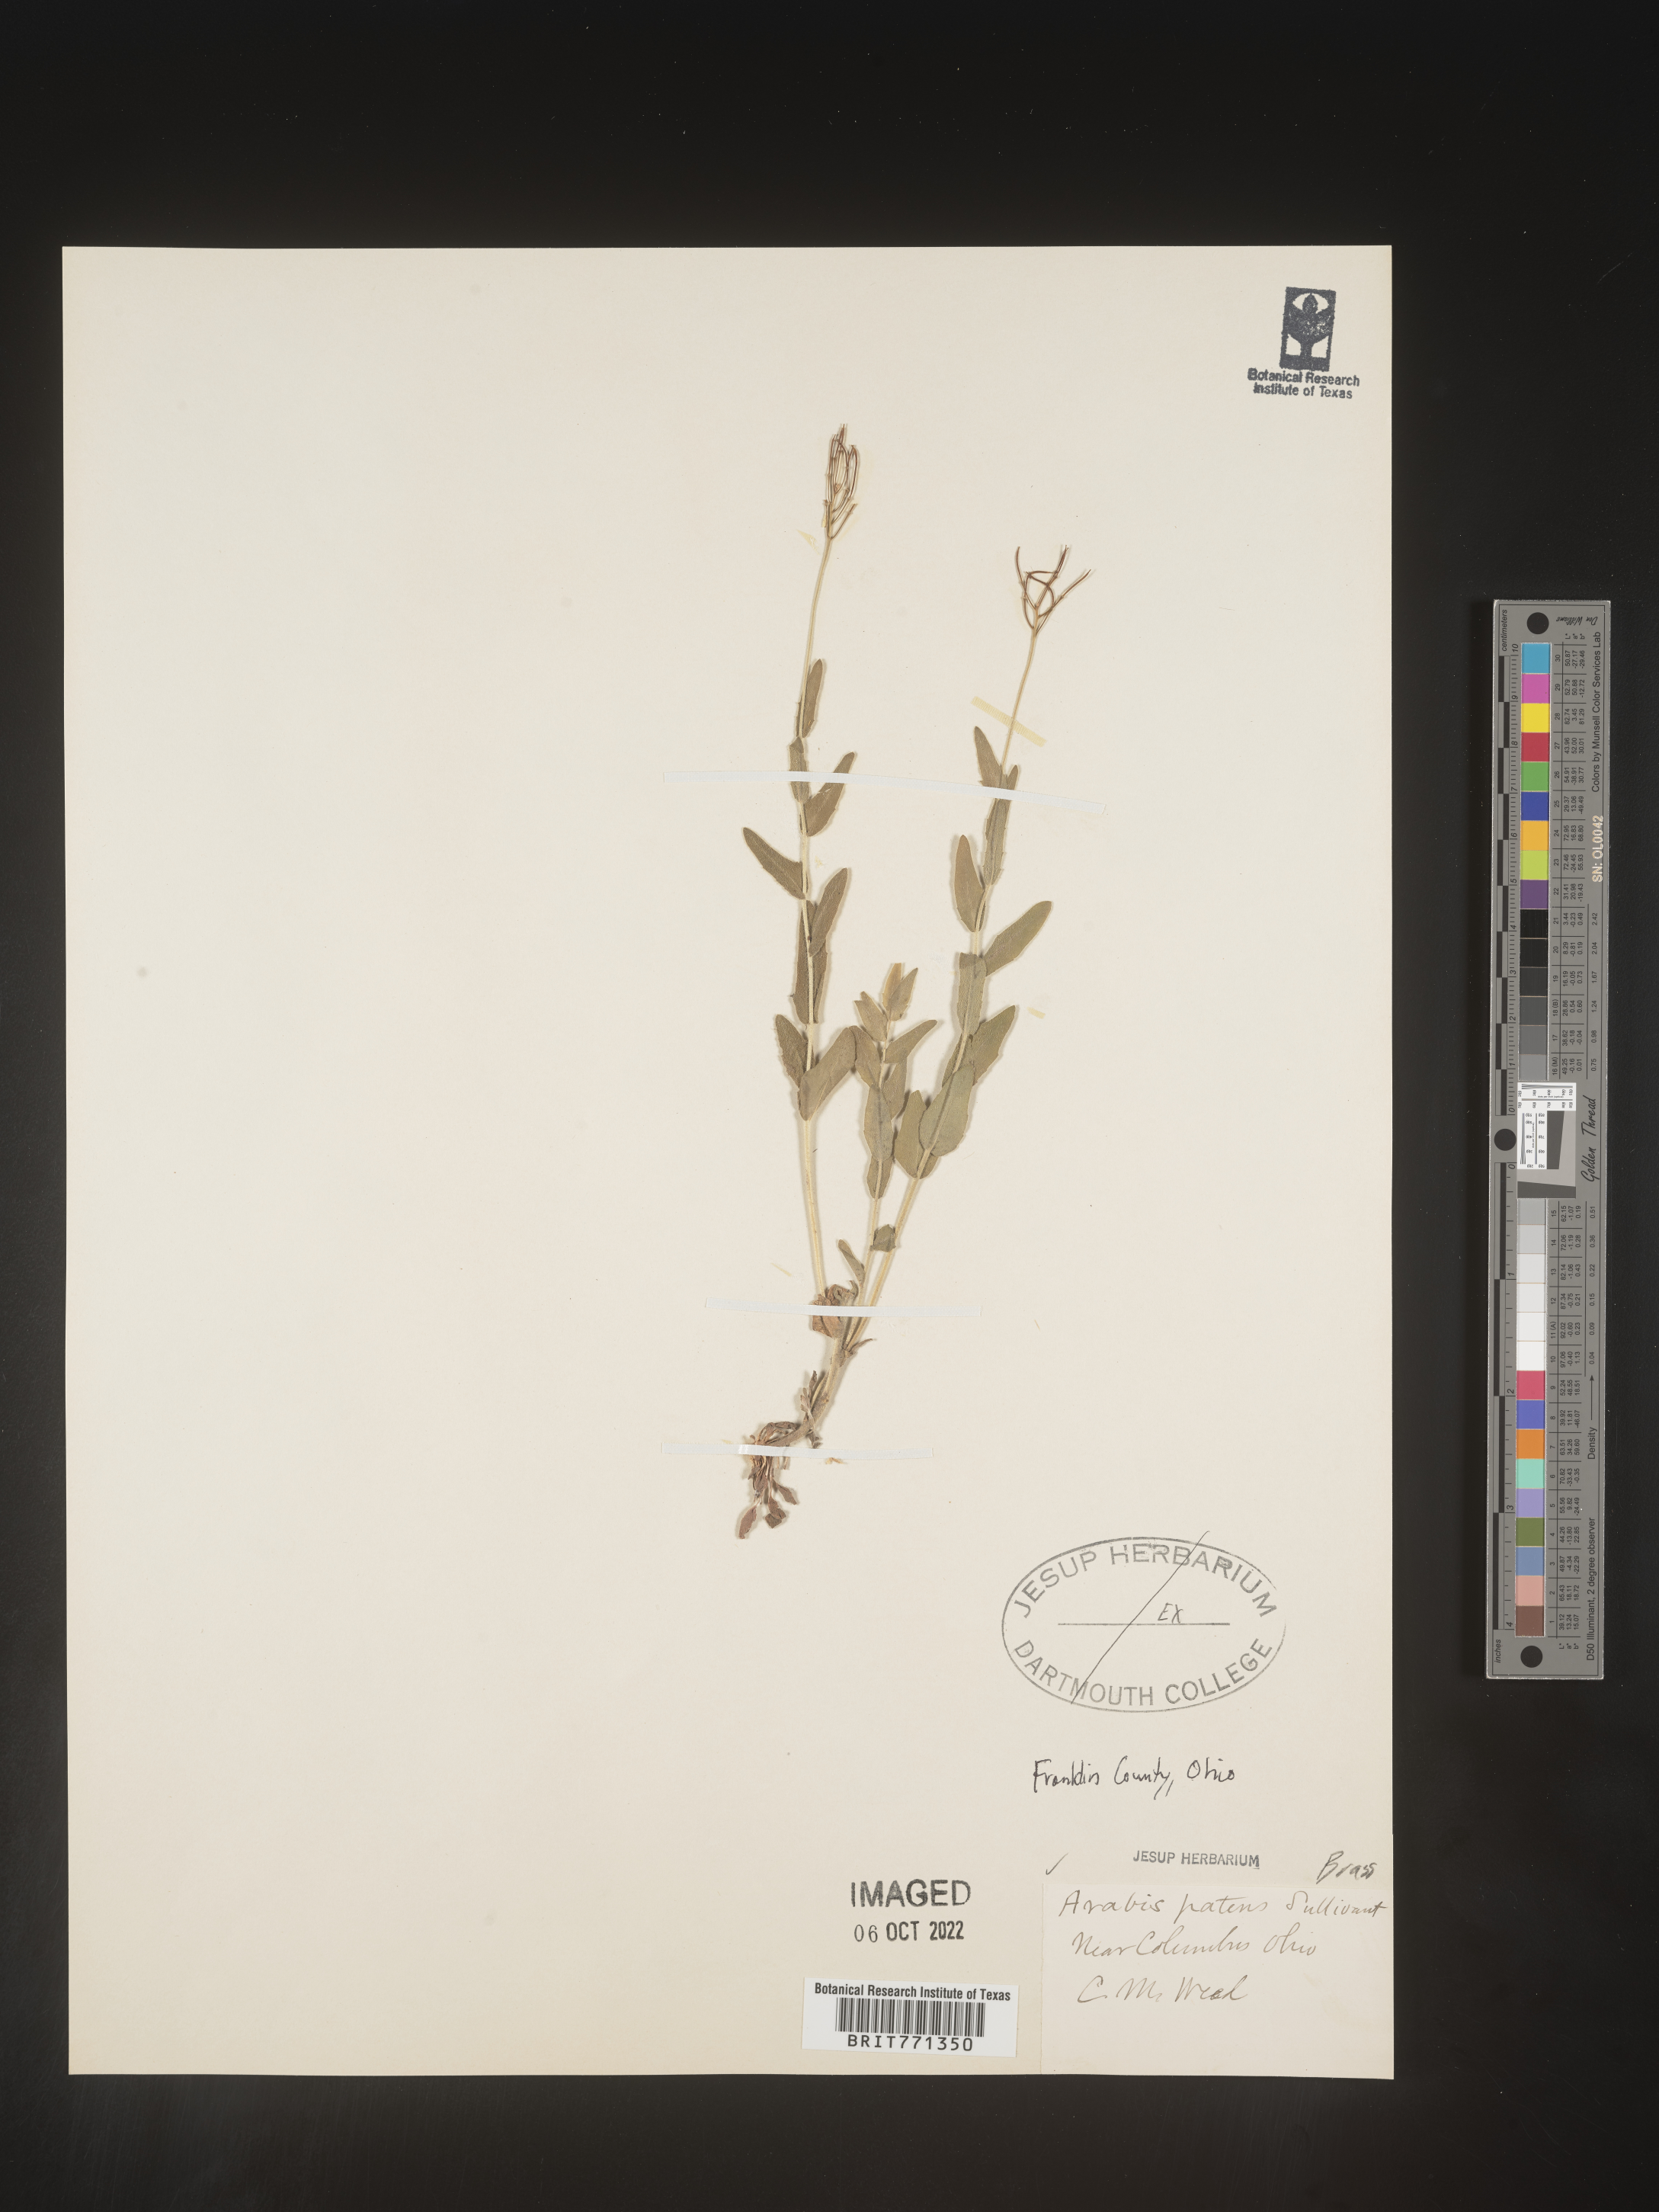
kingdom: Plantae
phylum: Tracheophyta
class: Magnoliopsida
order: Brassicales
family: Brassicaceae
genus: Arabis
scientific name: Arabis
